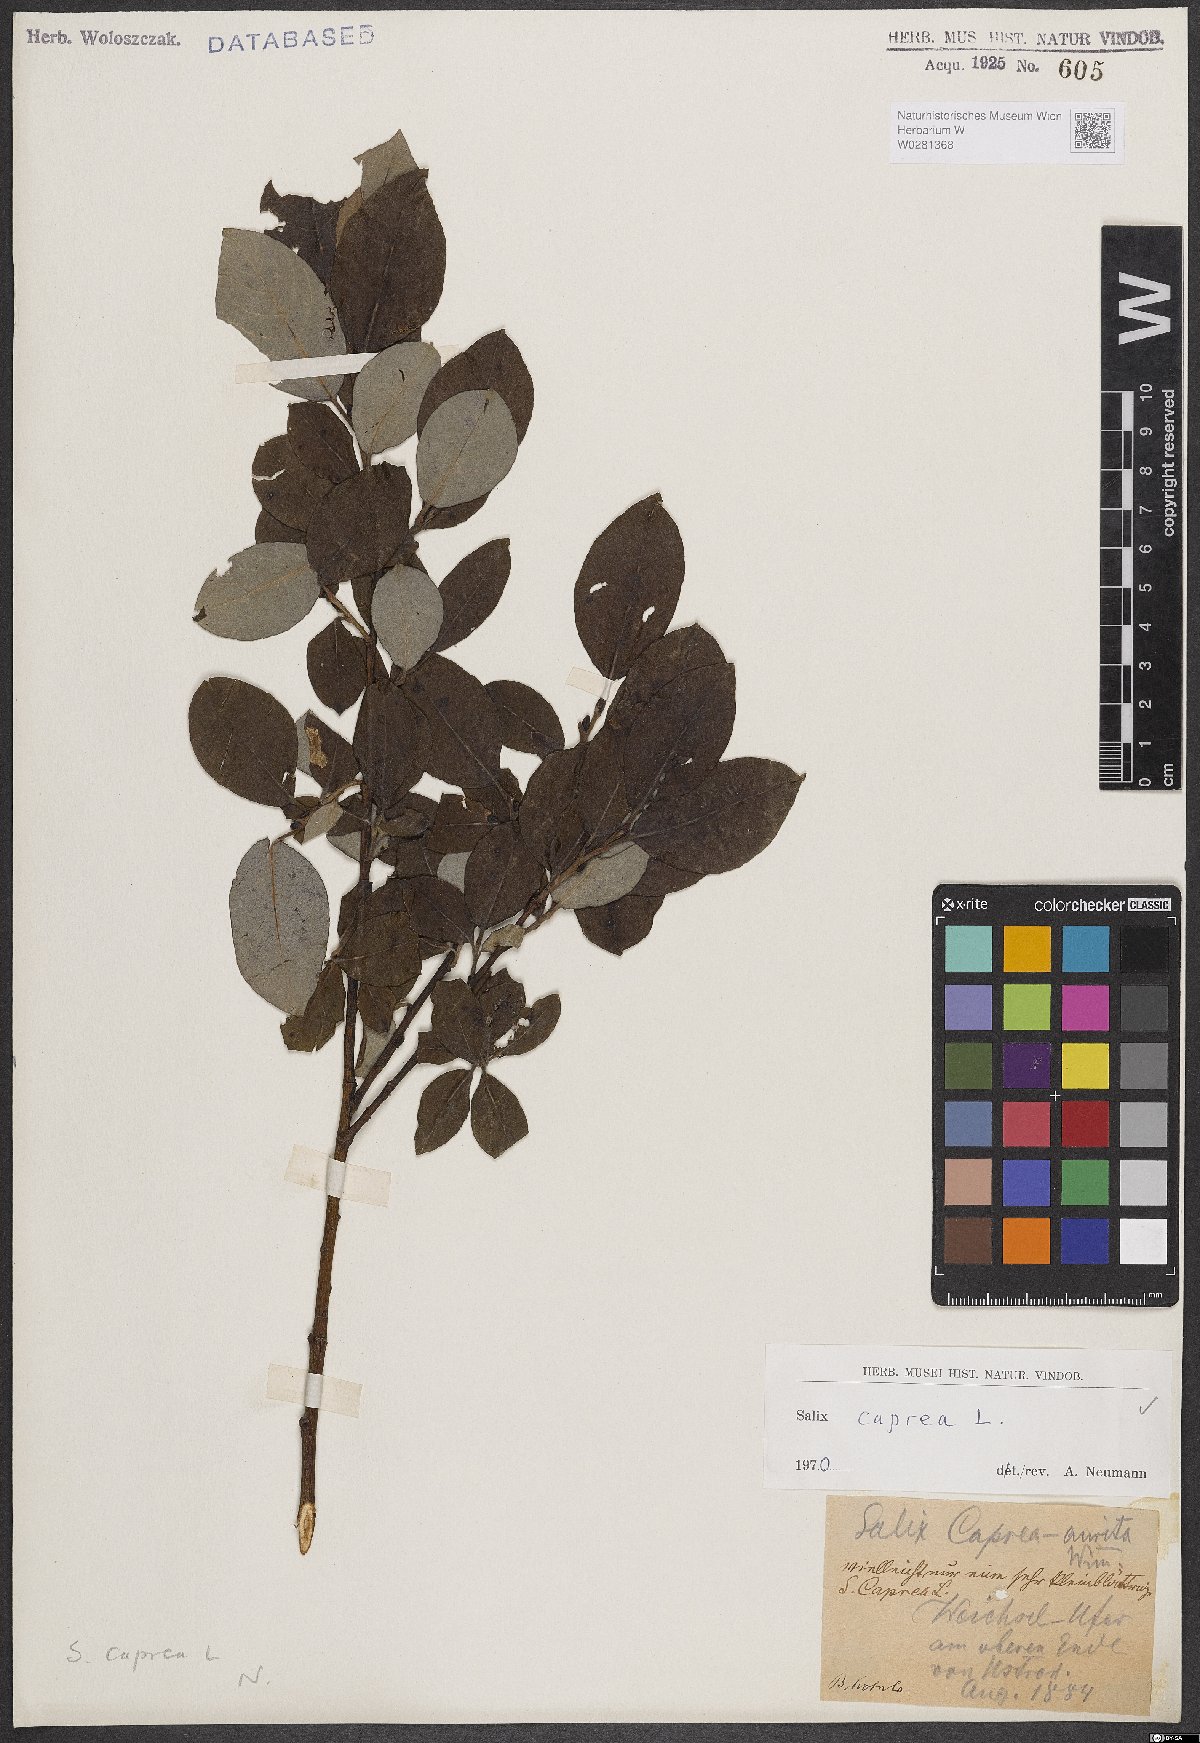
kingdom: Plantae
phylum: Tracheophyta
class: Magnoliopsida
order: Malpighiales
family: Salicaceae
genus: Salix
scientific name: Salix caprea
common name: Goat willow
